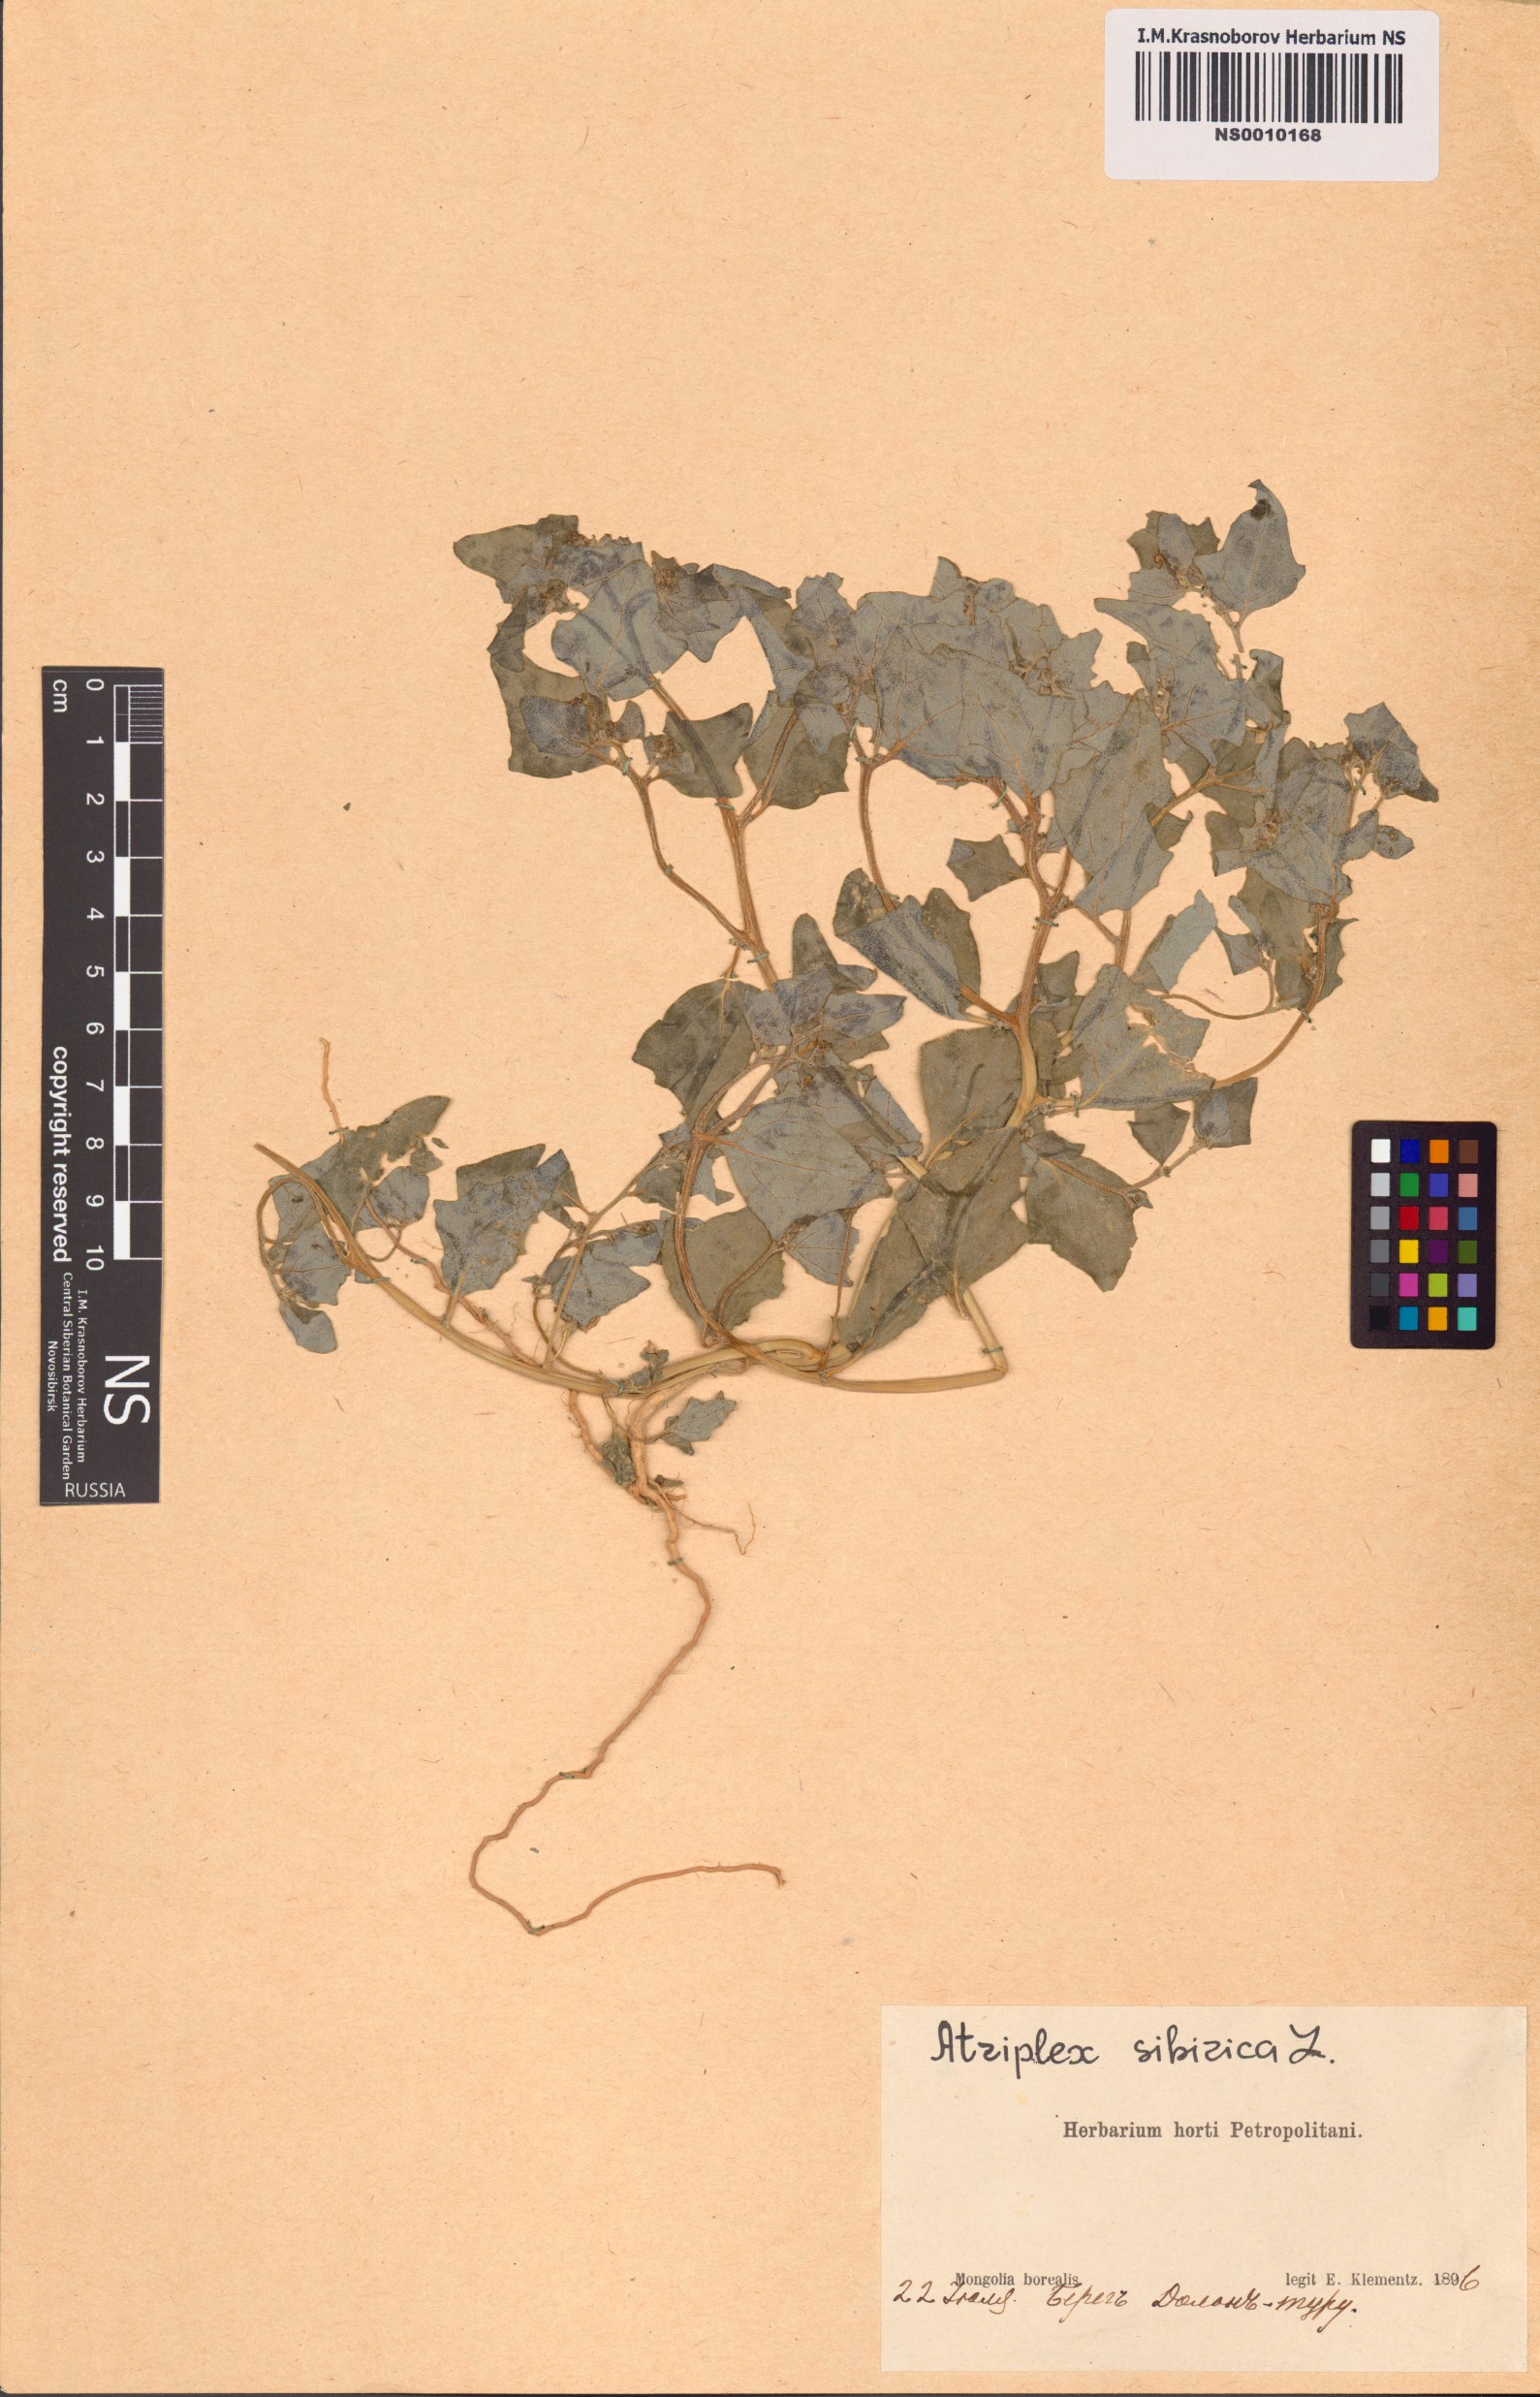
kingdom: Plantae
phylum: Tracheophyta
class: Magnoliopsida
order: Caryophyllales
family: Amaranthaceae
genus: Atriplex
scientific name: Atriplex sibirica
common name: Siberian saltbush
